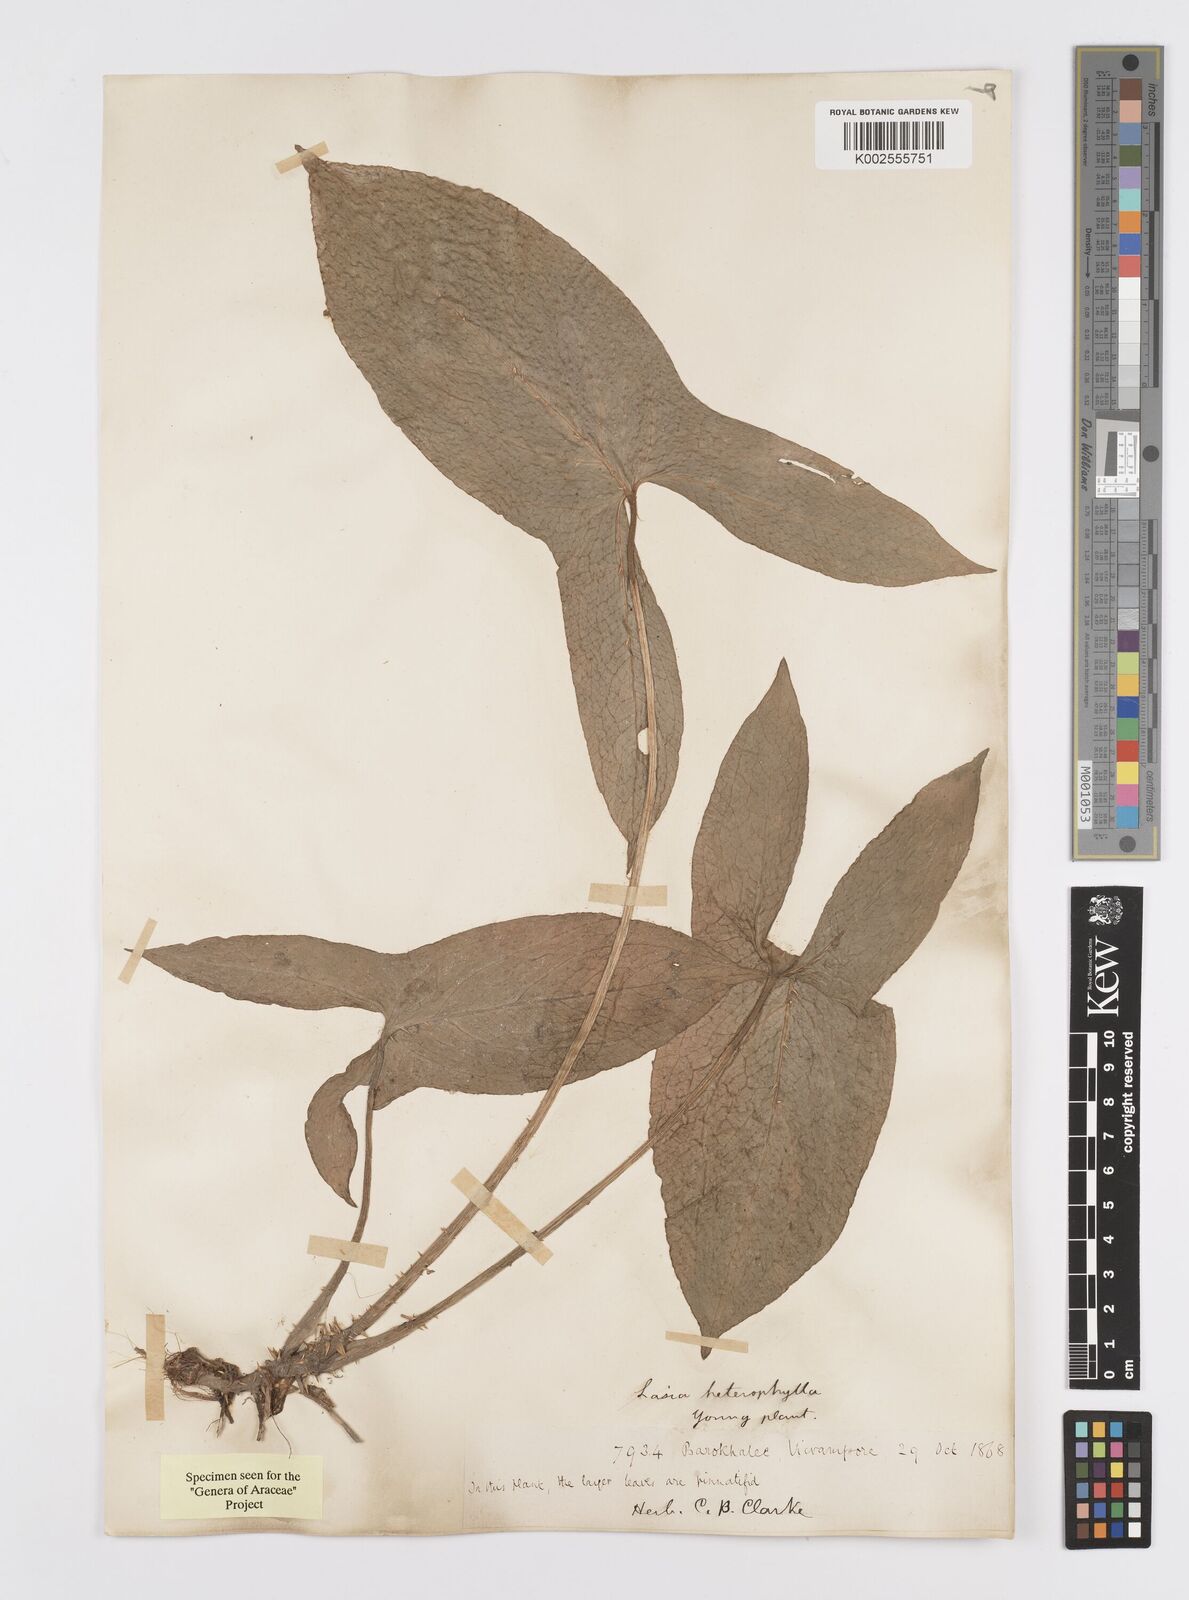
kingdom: Plantae
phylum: Tracheophyta
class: Liliopsida
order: Alismatales
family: Araceae
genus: Lasia
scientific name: Lasia spinosa
